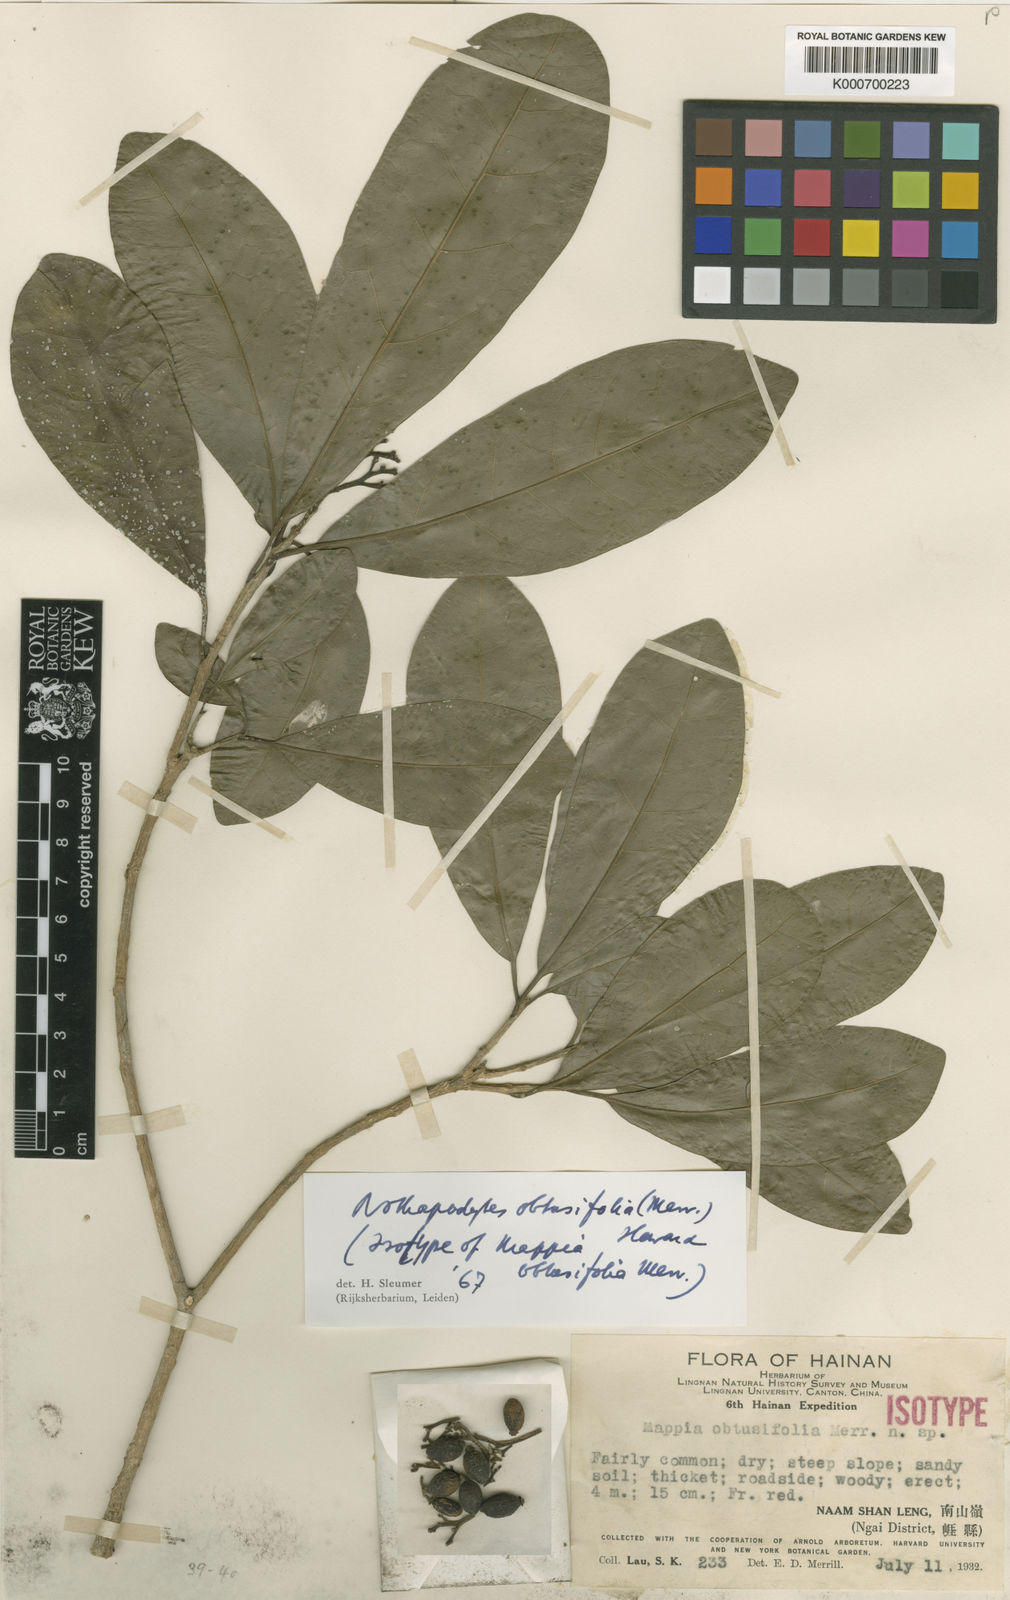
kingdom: Plantae
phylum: Tracheophyta
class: Magnoliopsida
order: Icacinales
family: Icacinaceae
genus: Nothapodytes
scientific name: Nothapodytes obtusifolia
